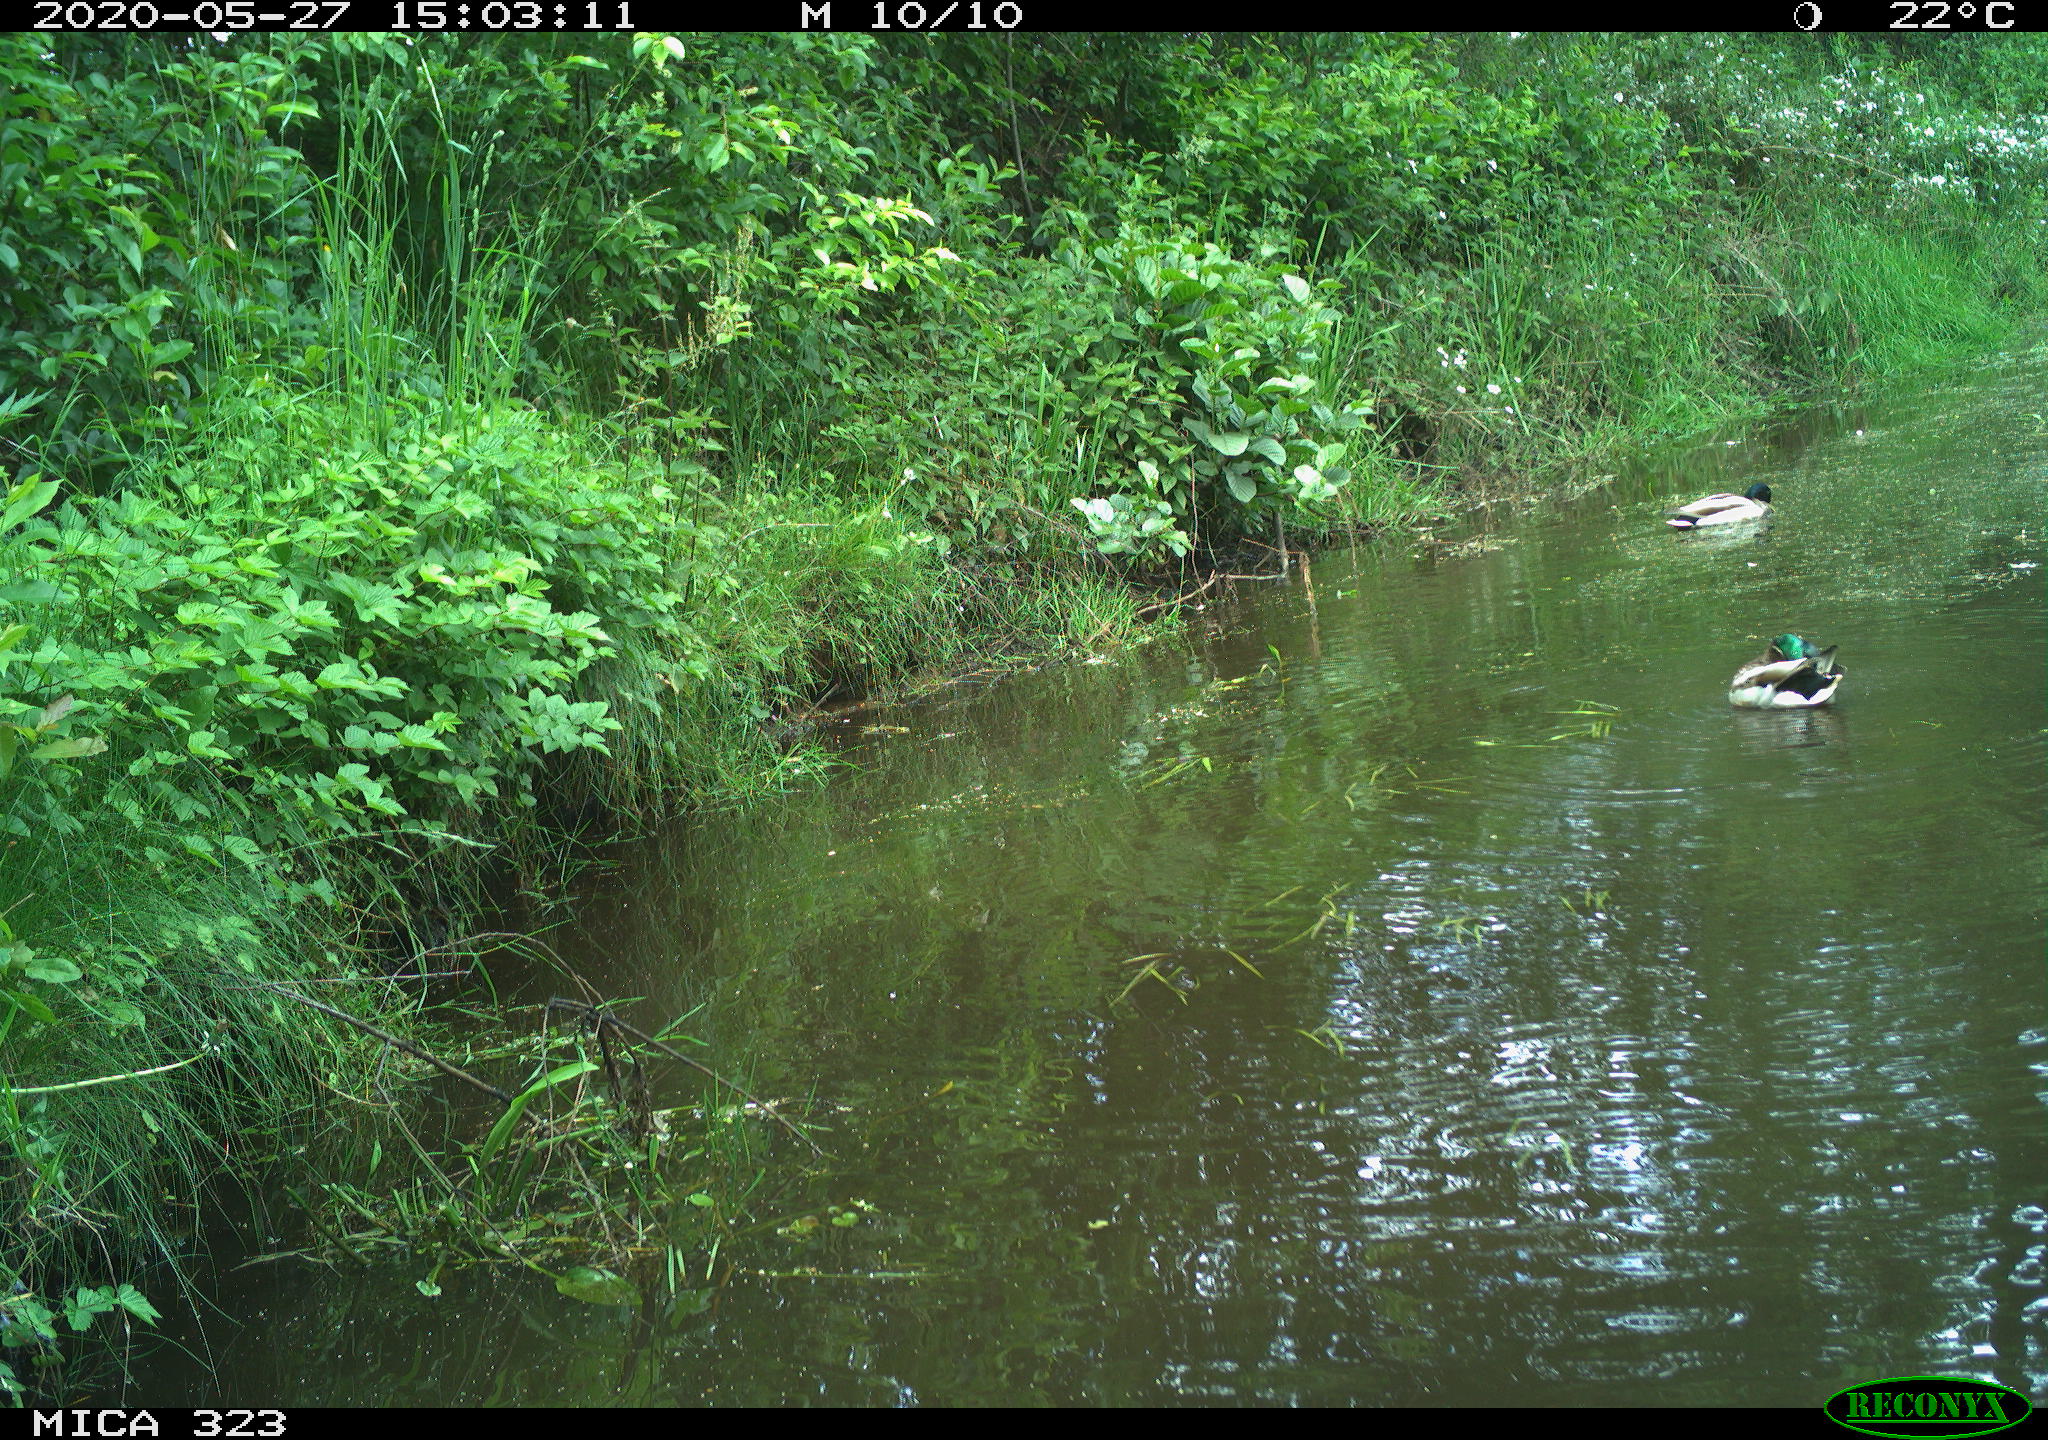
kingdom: Animalia
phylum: Chordata
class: Aves
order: Anseriformes
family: Anatidae
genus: Anas
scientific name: Anas platyrhynchos
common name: Mallard
